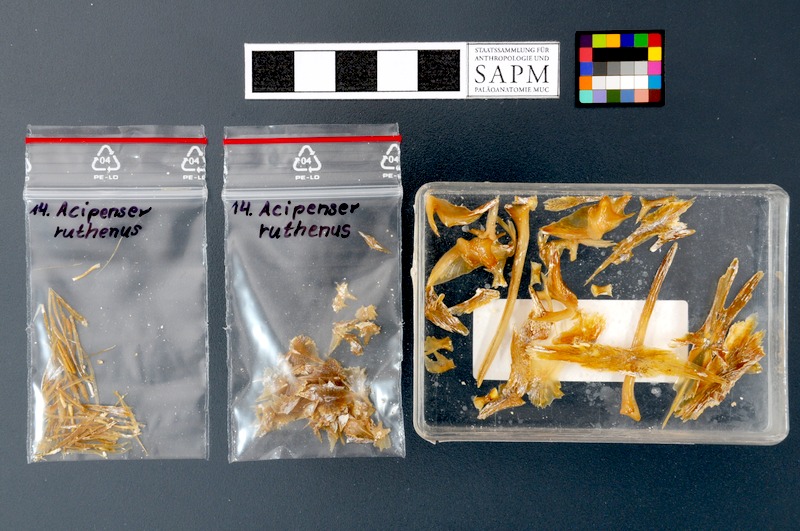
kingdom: Animalia
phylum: Chordata
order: Acipenseriformes
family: Acipenseridae
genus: Acipenser
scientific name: Acipenser ruthenus
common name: Sterlet
